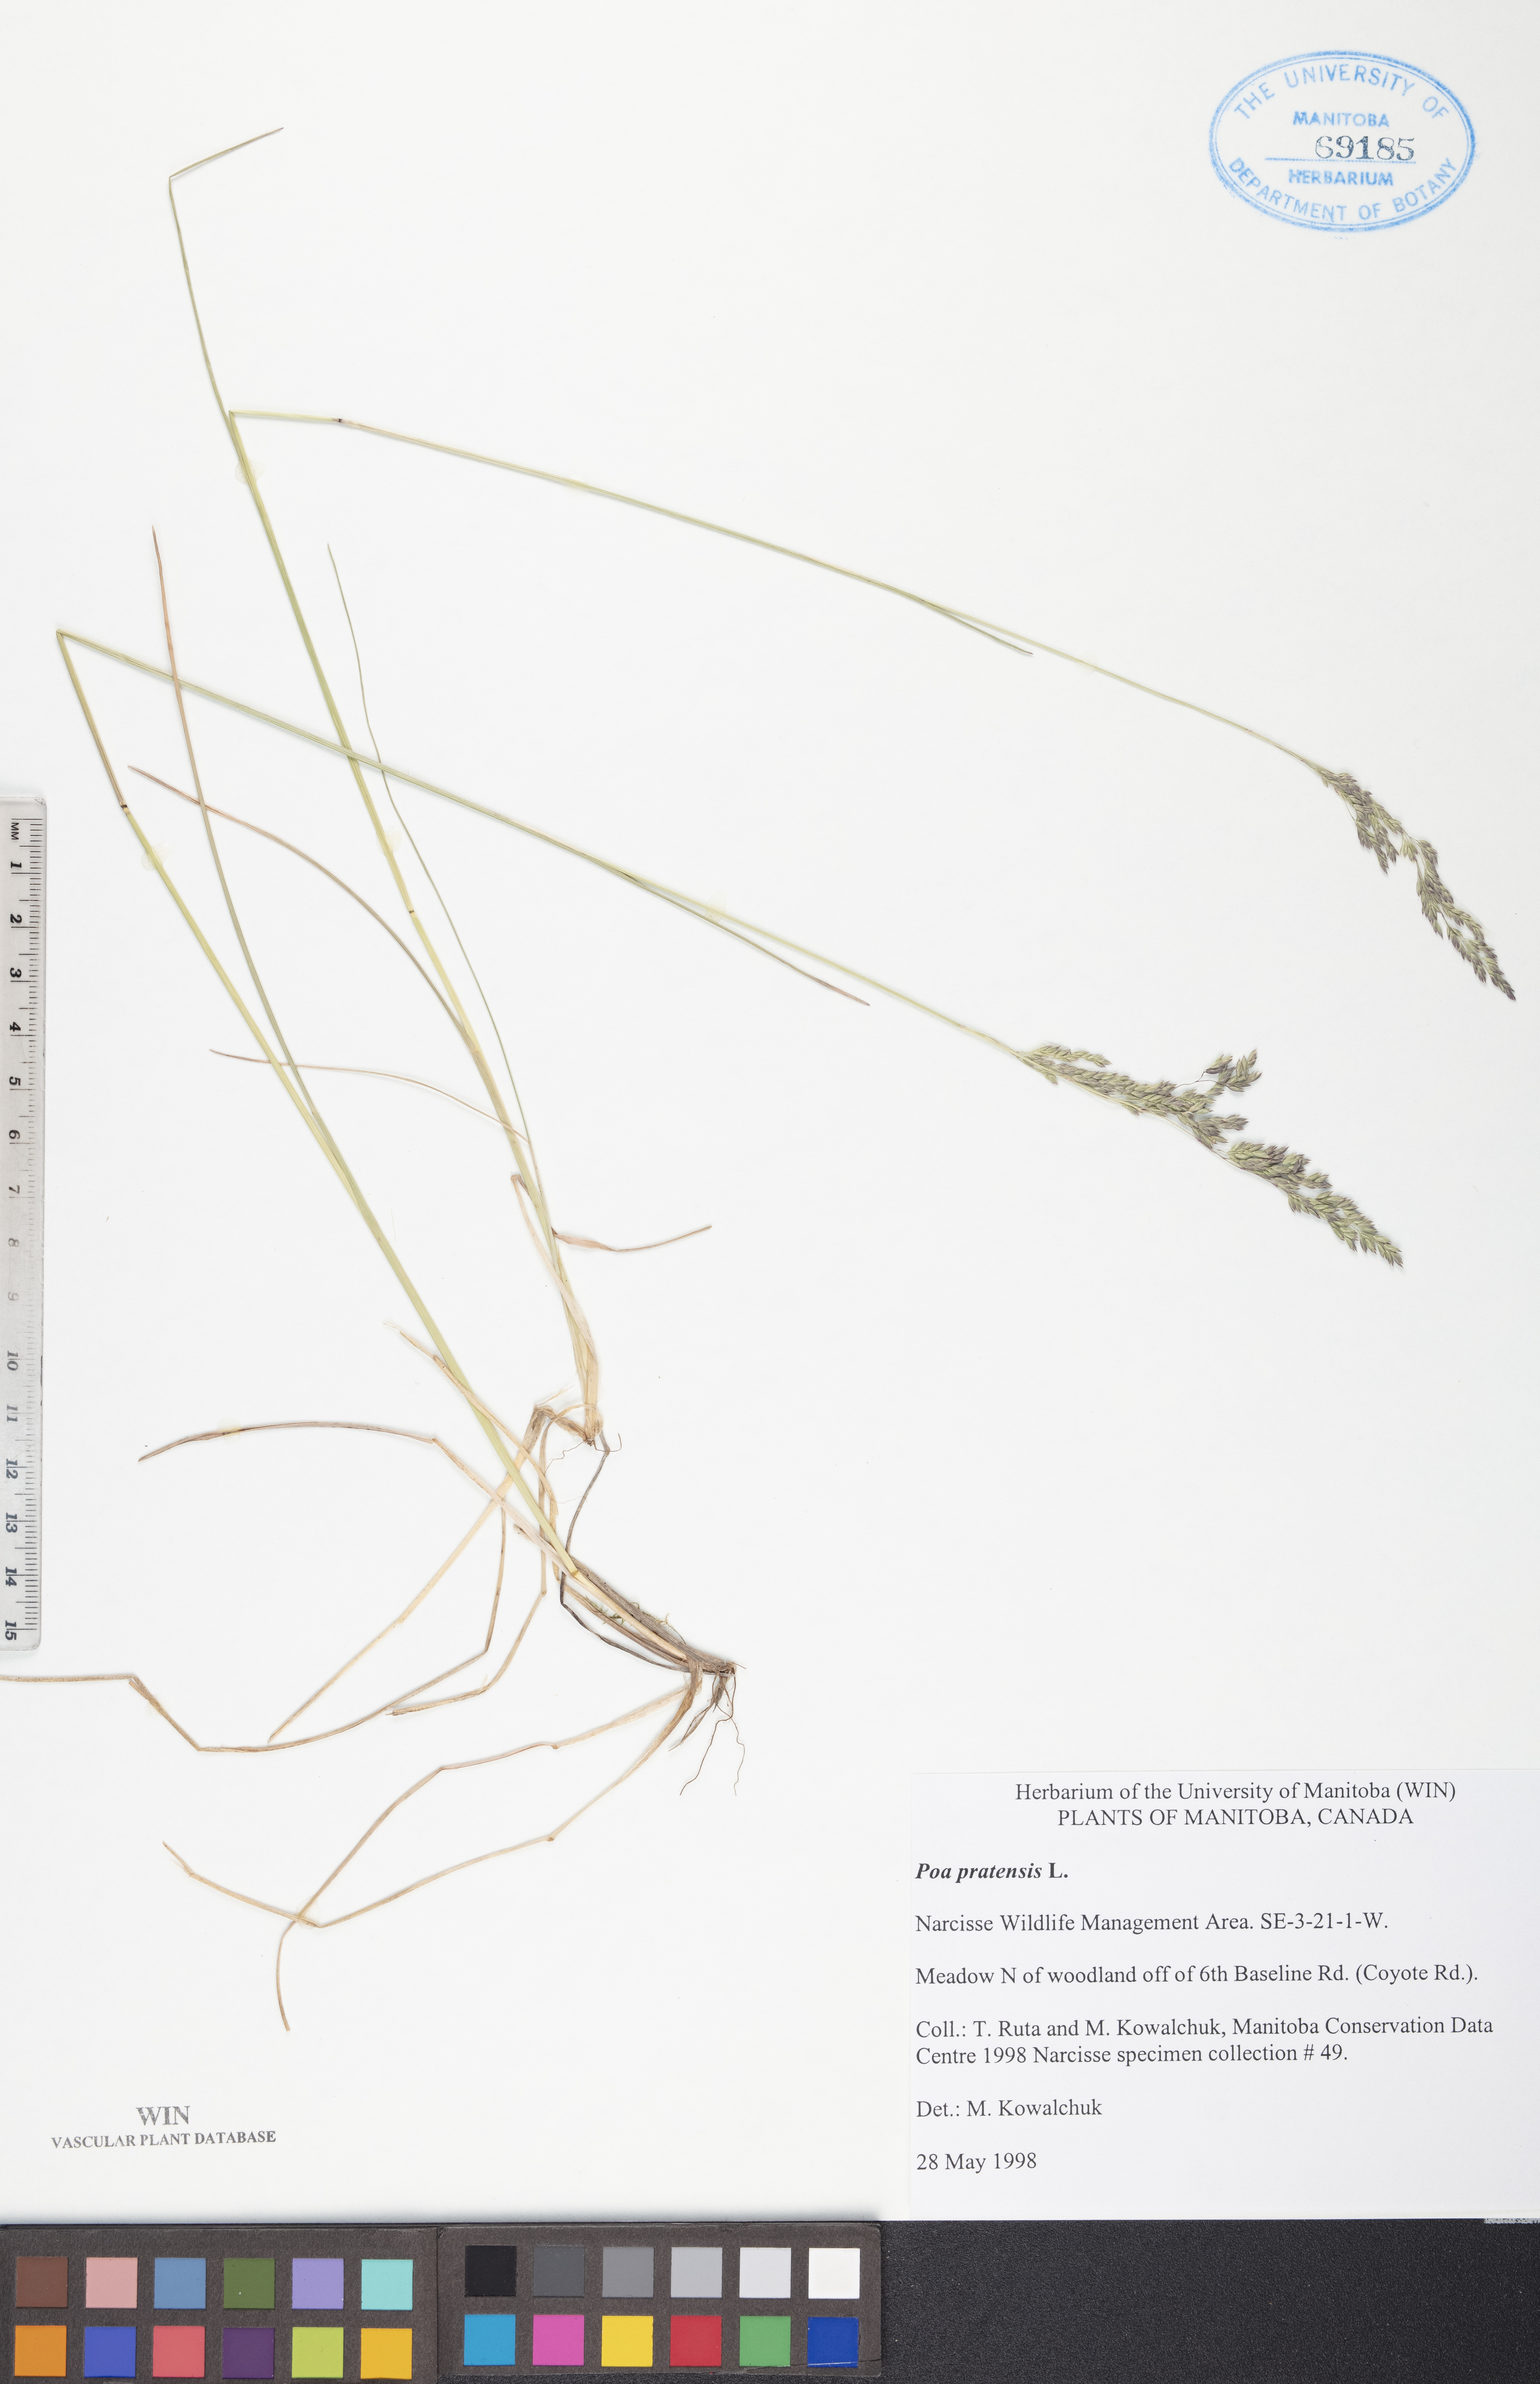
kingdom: Plantae
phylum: Tracheophyta
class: Liliopsida
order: Poales
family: Poaceae
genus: Poa
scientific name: Poa pratensis
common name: Kentucky bluegrass
